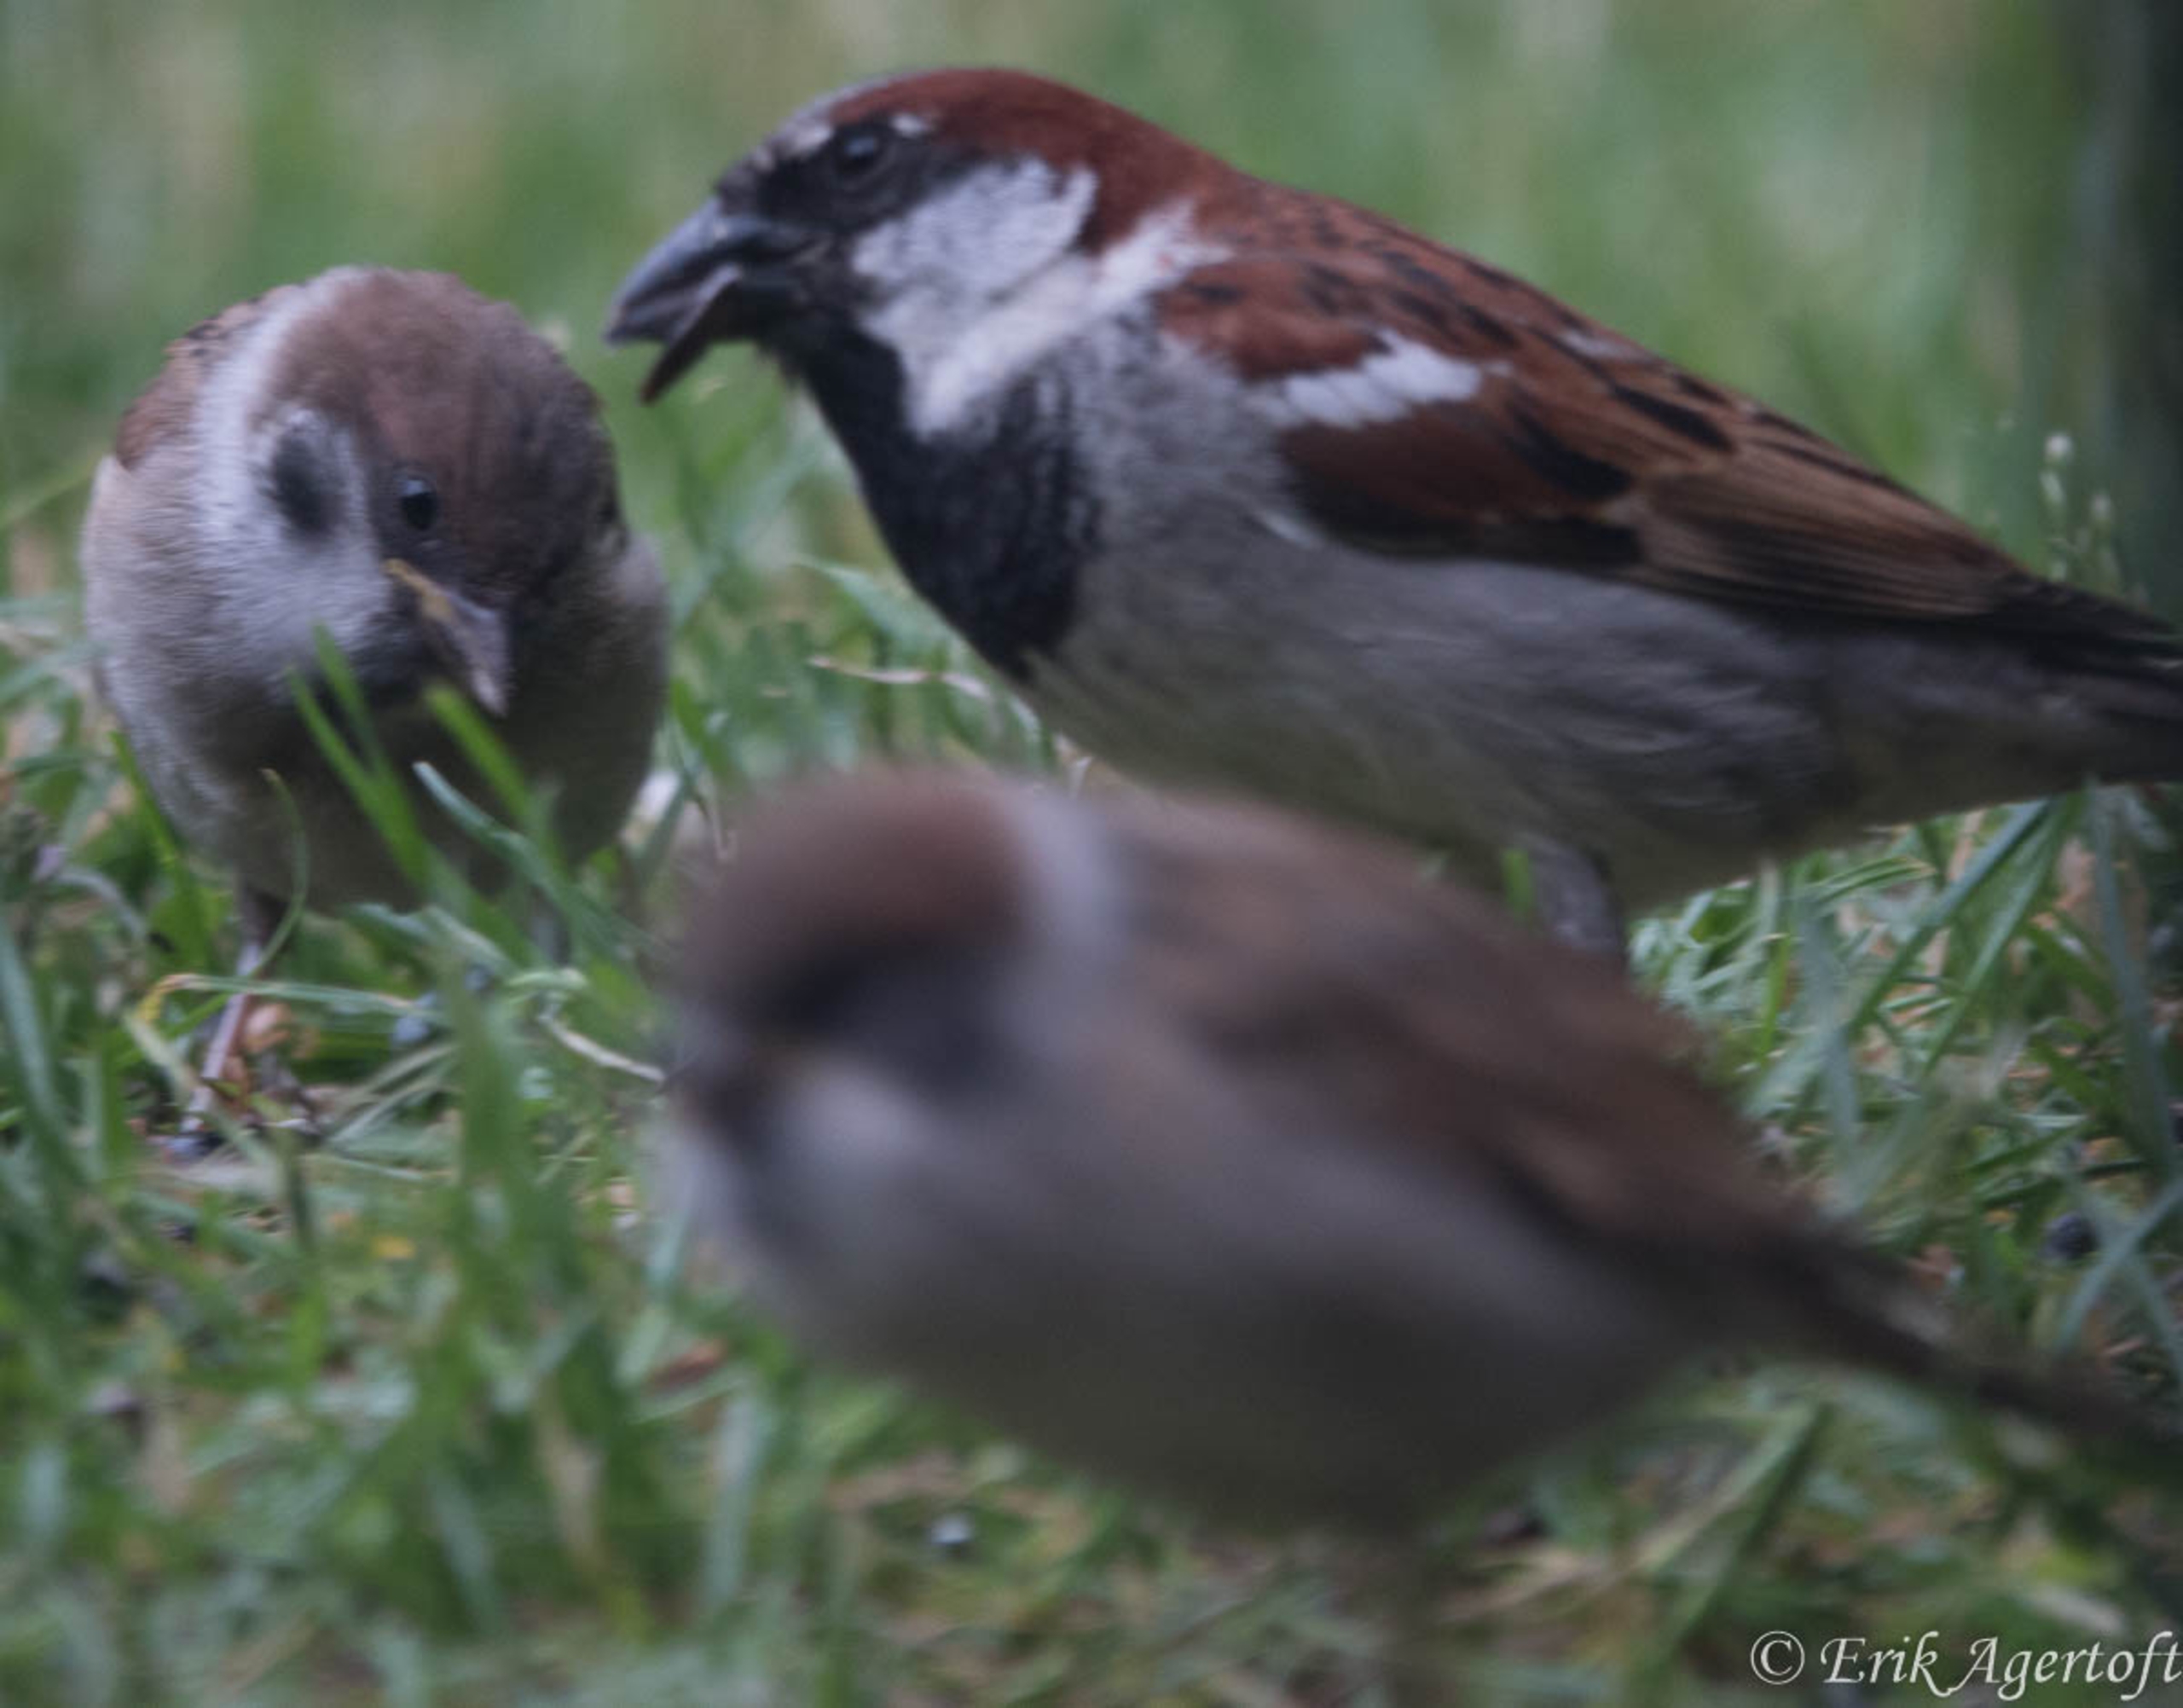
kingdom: Animalia
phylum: Chordata
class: Aves
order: Passeriformes
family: Passeridae
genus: Passer
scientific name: Passer domesticus
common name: Gråspurv
